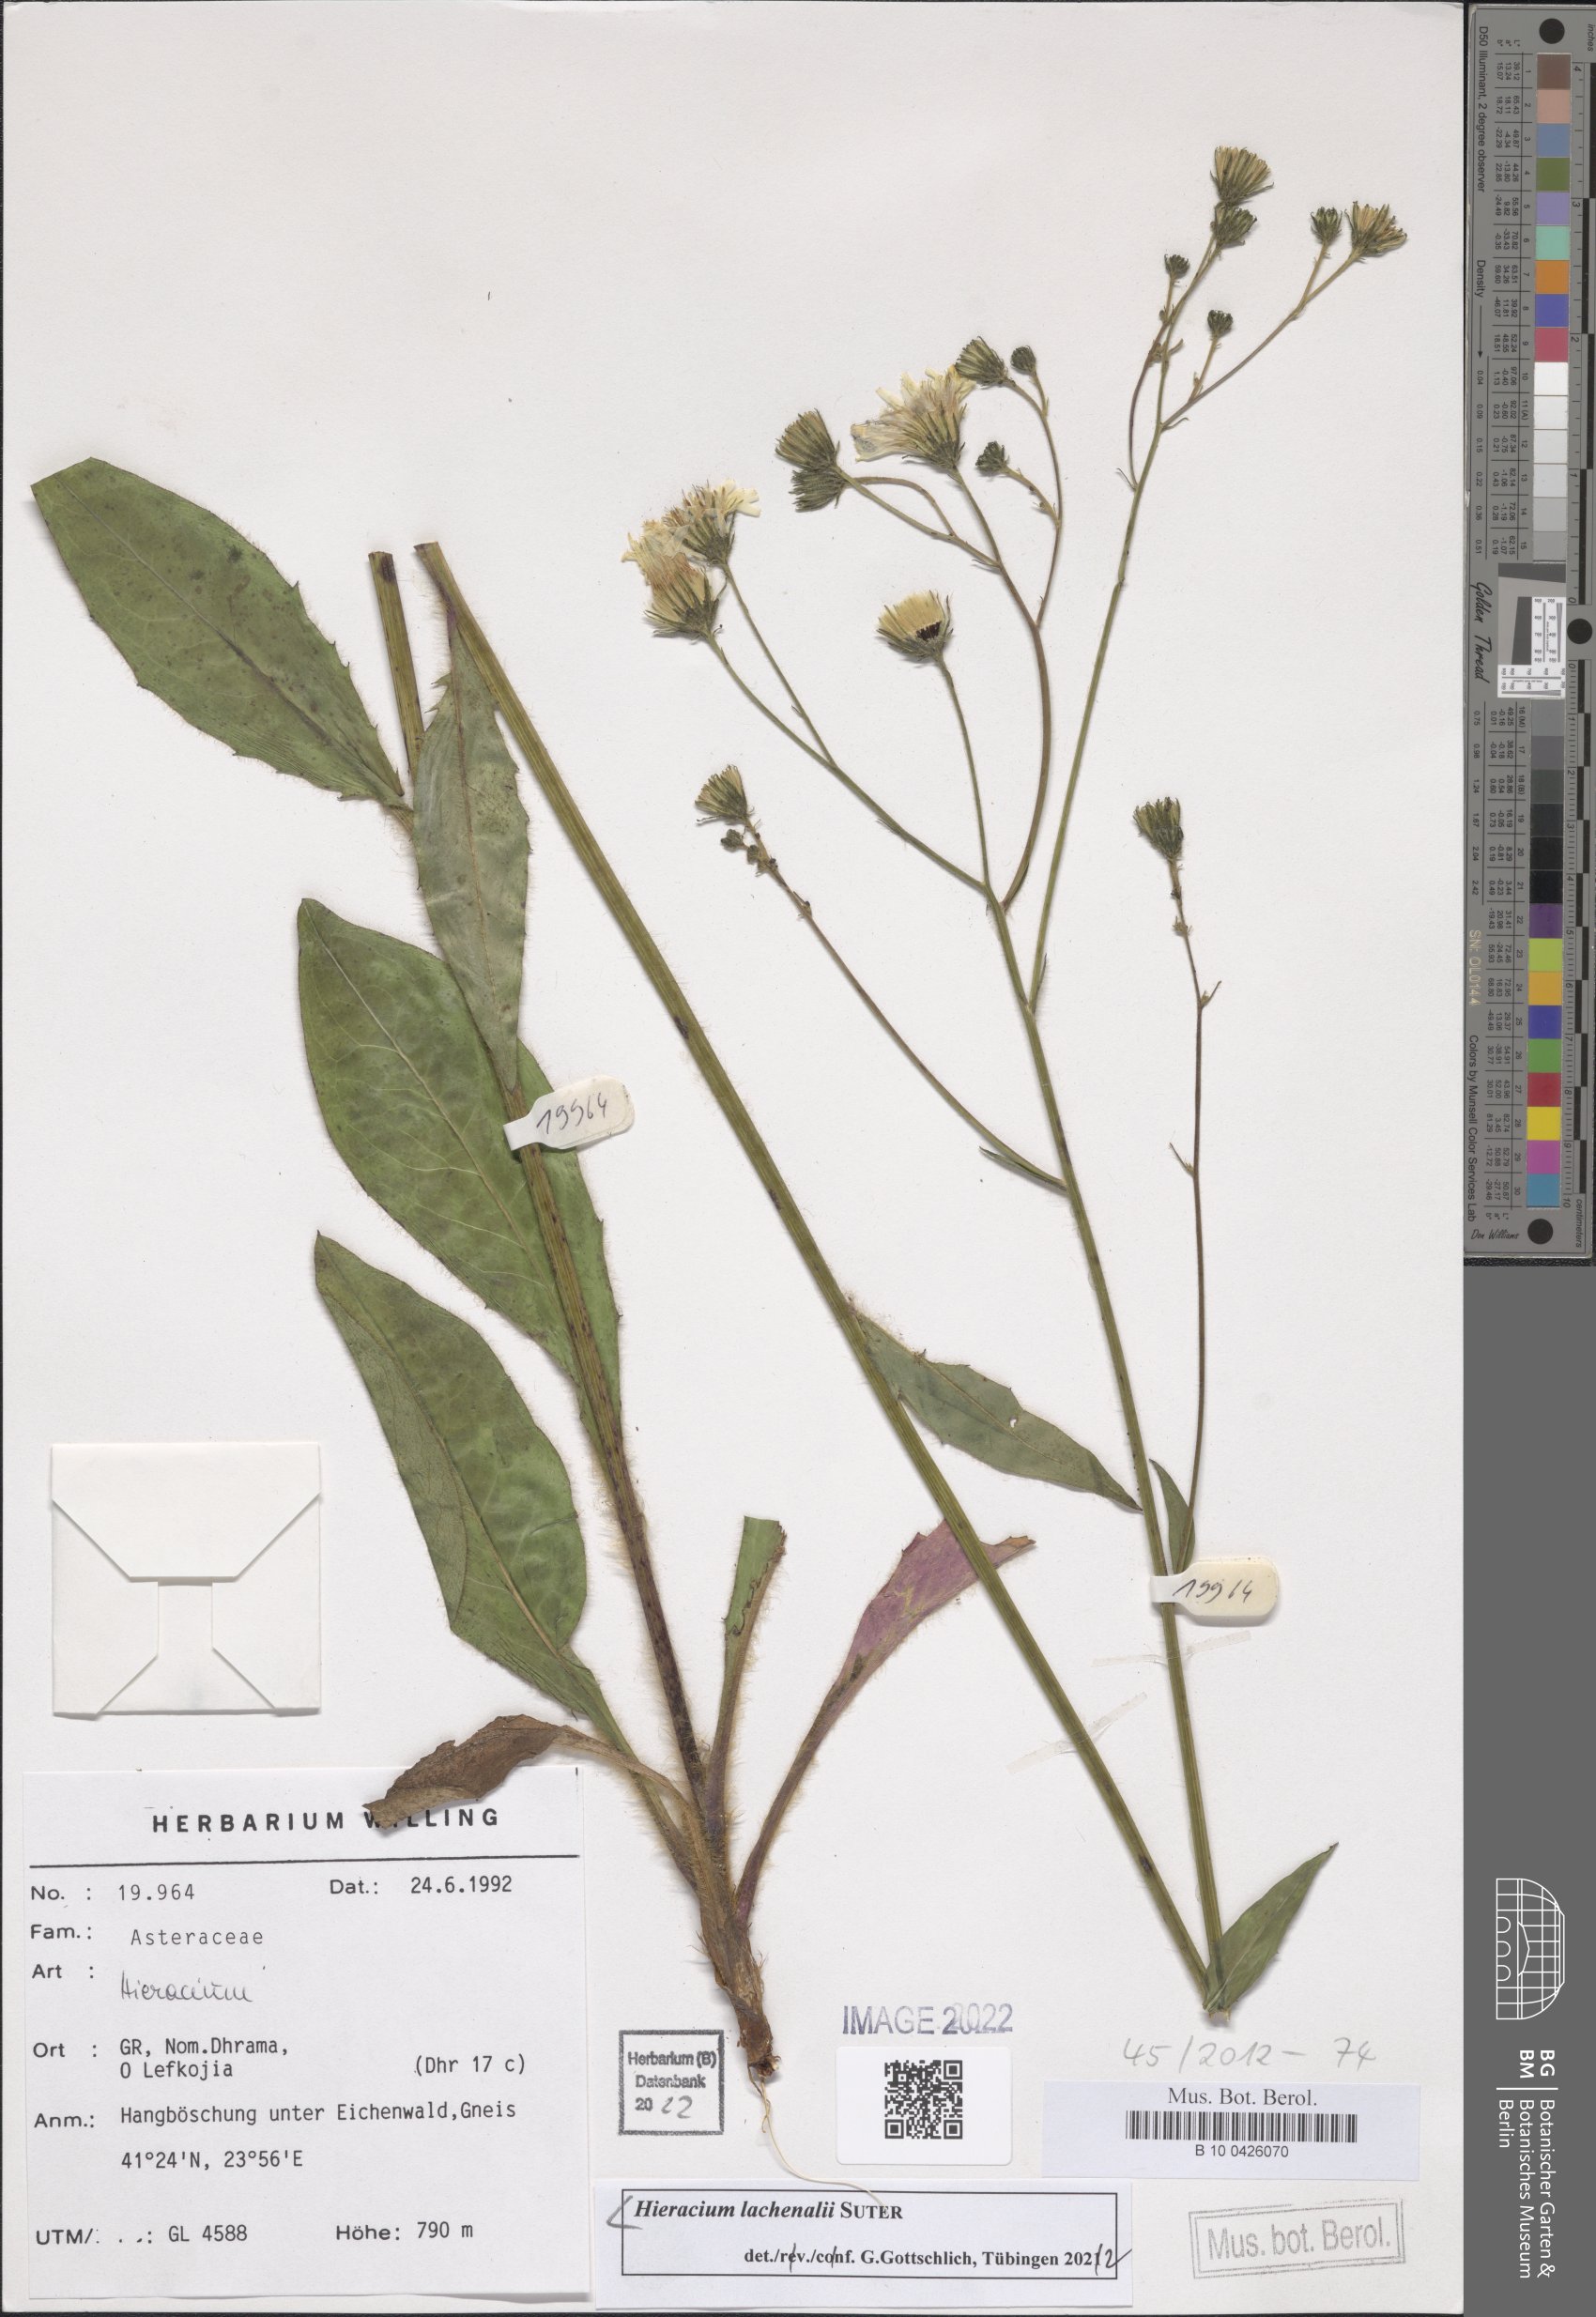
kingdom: Plantae
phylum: Tracheophyta
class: Magnoliopsida
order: Asterales
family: Asteraceae
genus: Hieracium
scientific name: Hieracium lachenalii
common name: Common hawkweed
